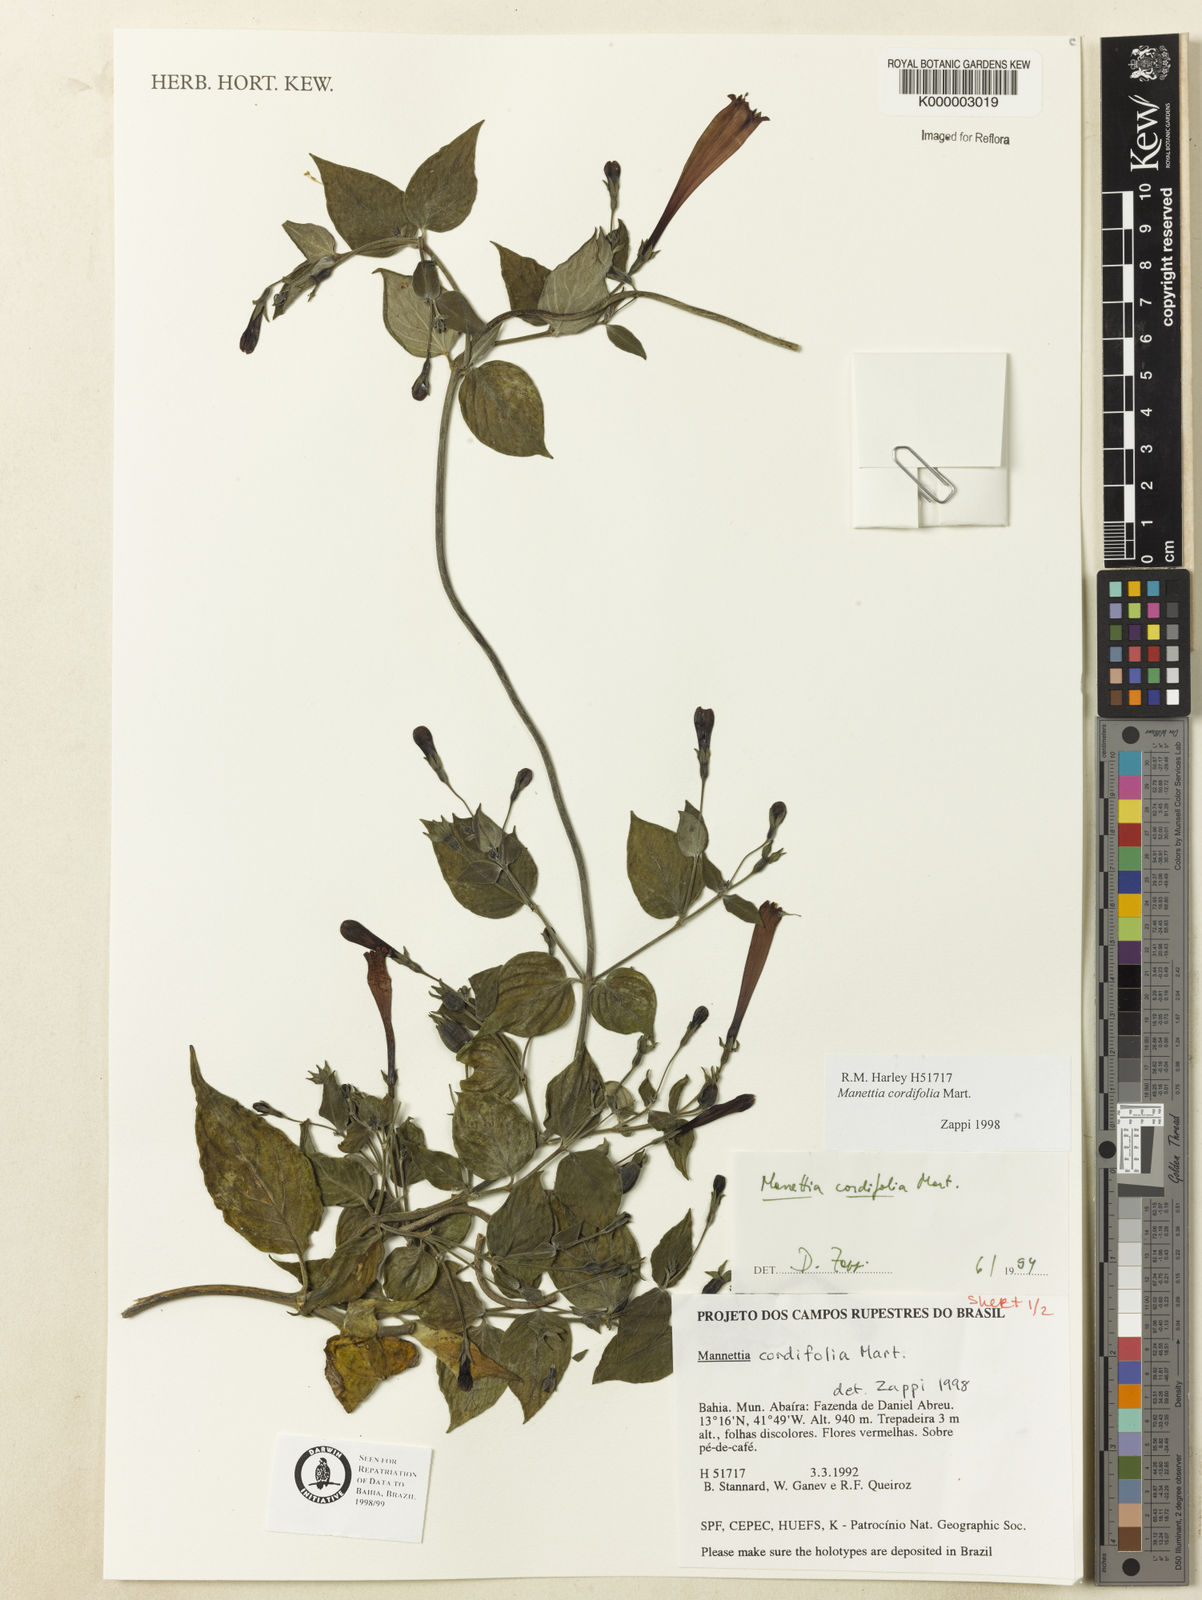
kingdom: Plantae
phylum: Tracheophyta
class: Magnoliopsida
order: Gentianales
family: Rubiaceae
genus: Manettia
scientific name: Manettia cordifolia
